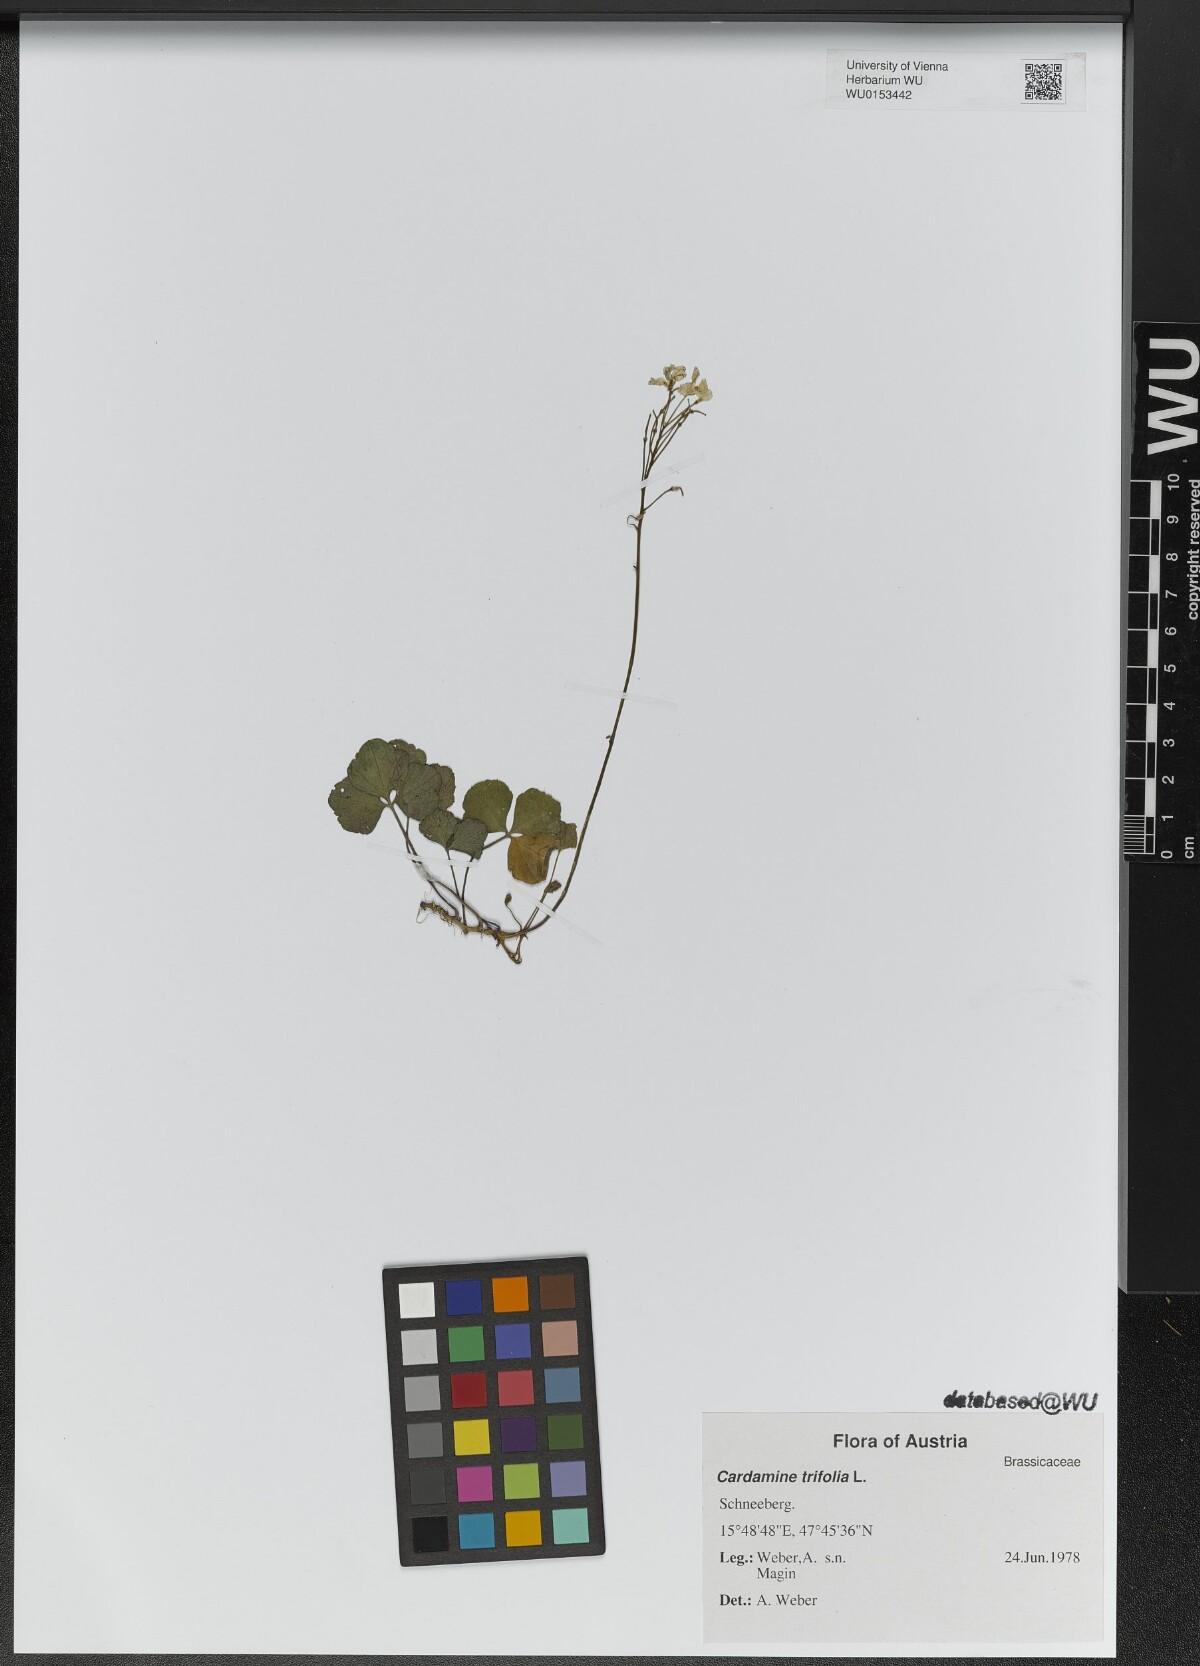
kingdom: Plantae
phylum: Tracheophyta
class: Magnoliopsida
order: Brassicales
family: Brassicaceae
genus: Cardamine
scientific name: Cardamine trifolia
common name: Trefoil cress
